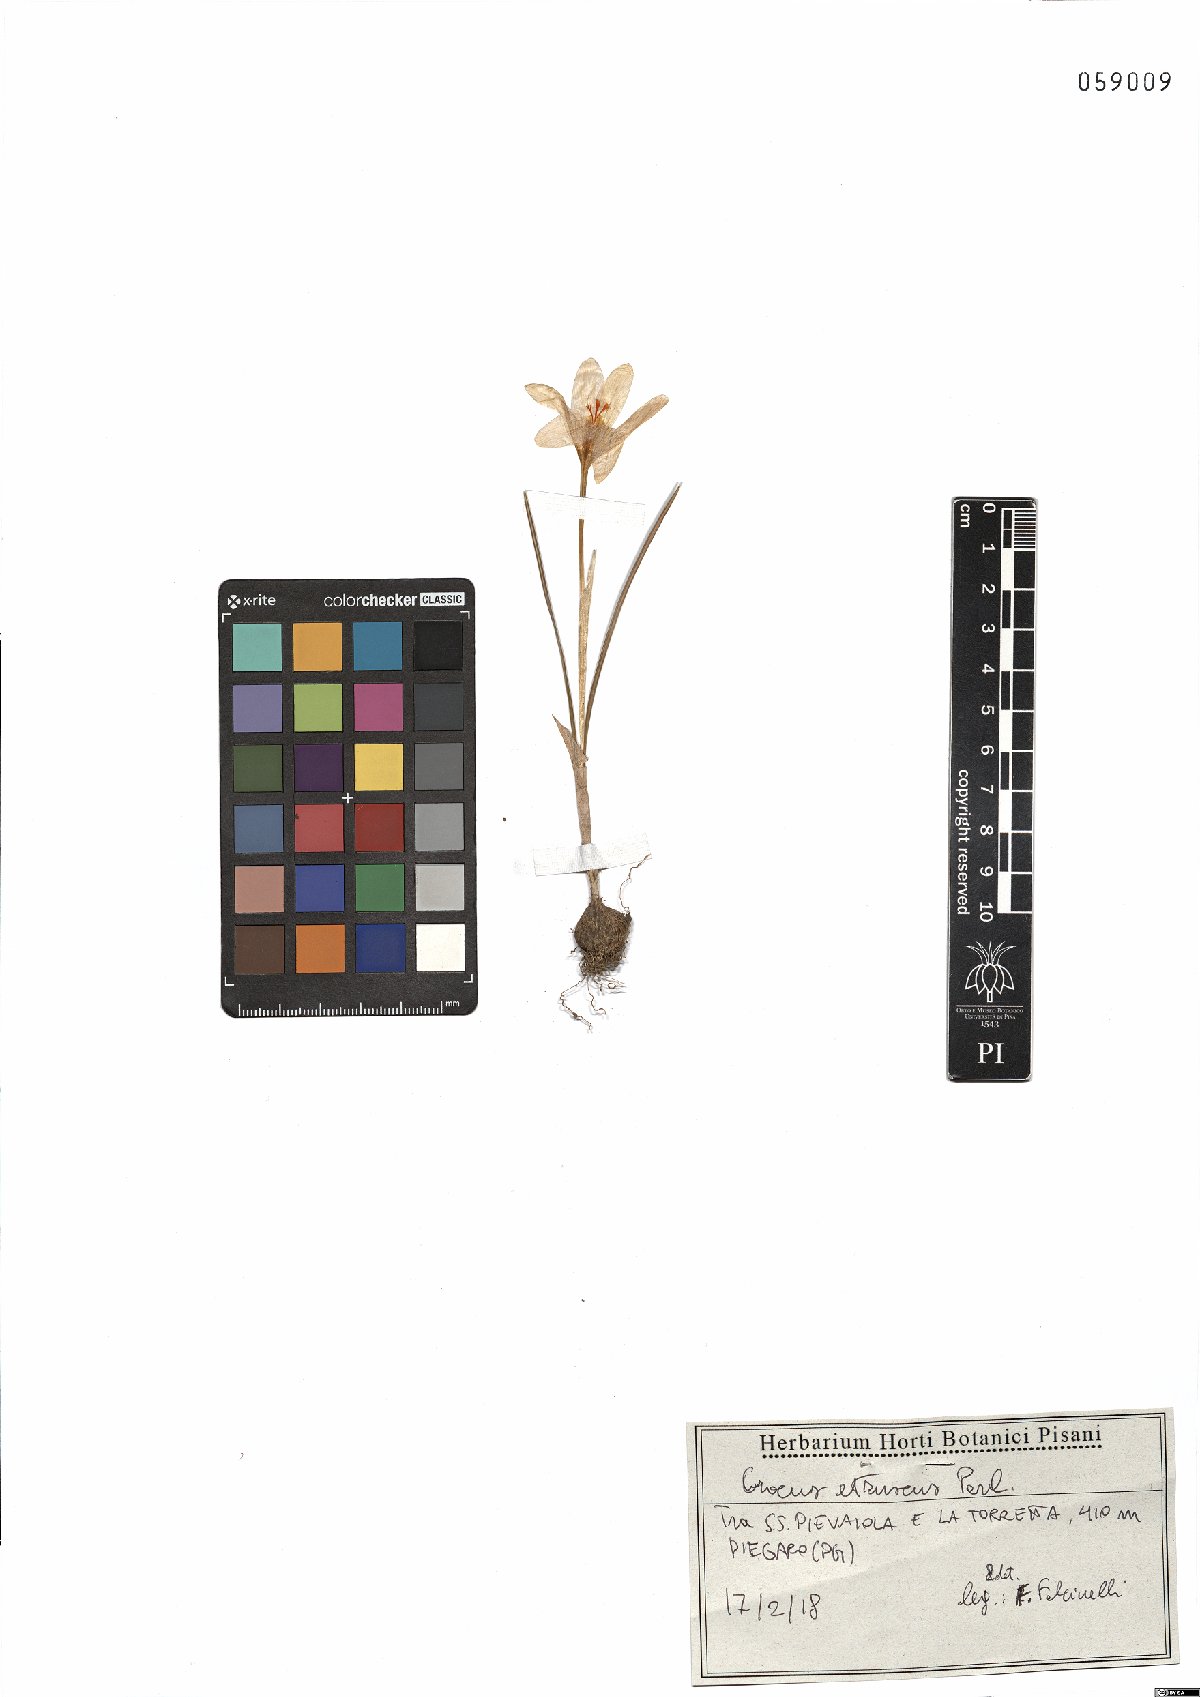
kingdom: Plantae
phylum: Tracheophyta
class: Liliopsida
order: Asparagales
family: Iridaceae
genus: Crocus
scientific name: Crocus etruscus
